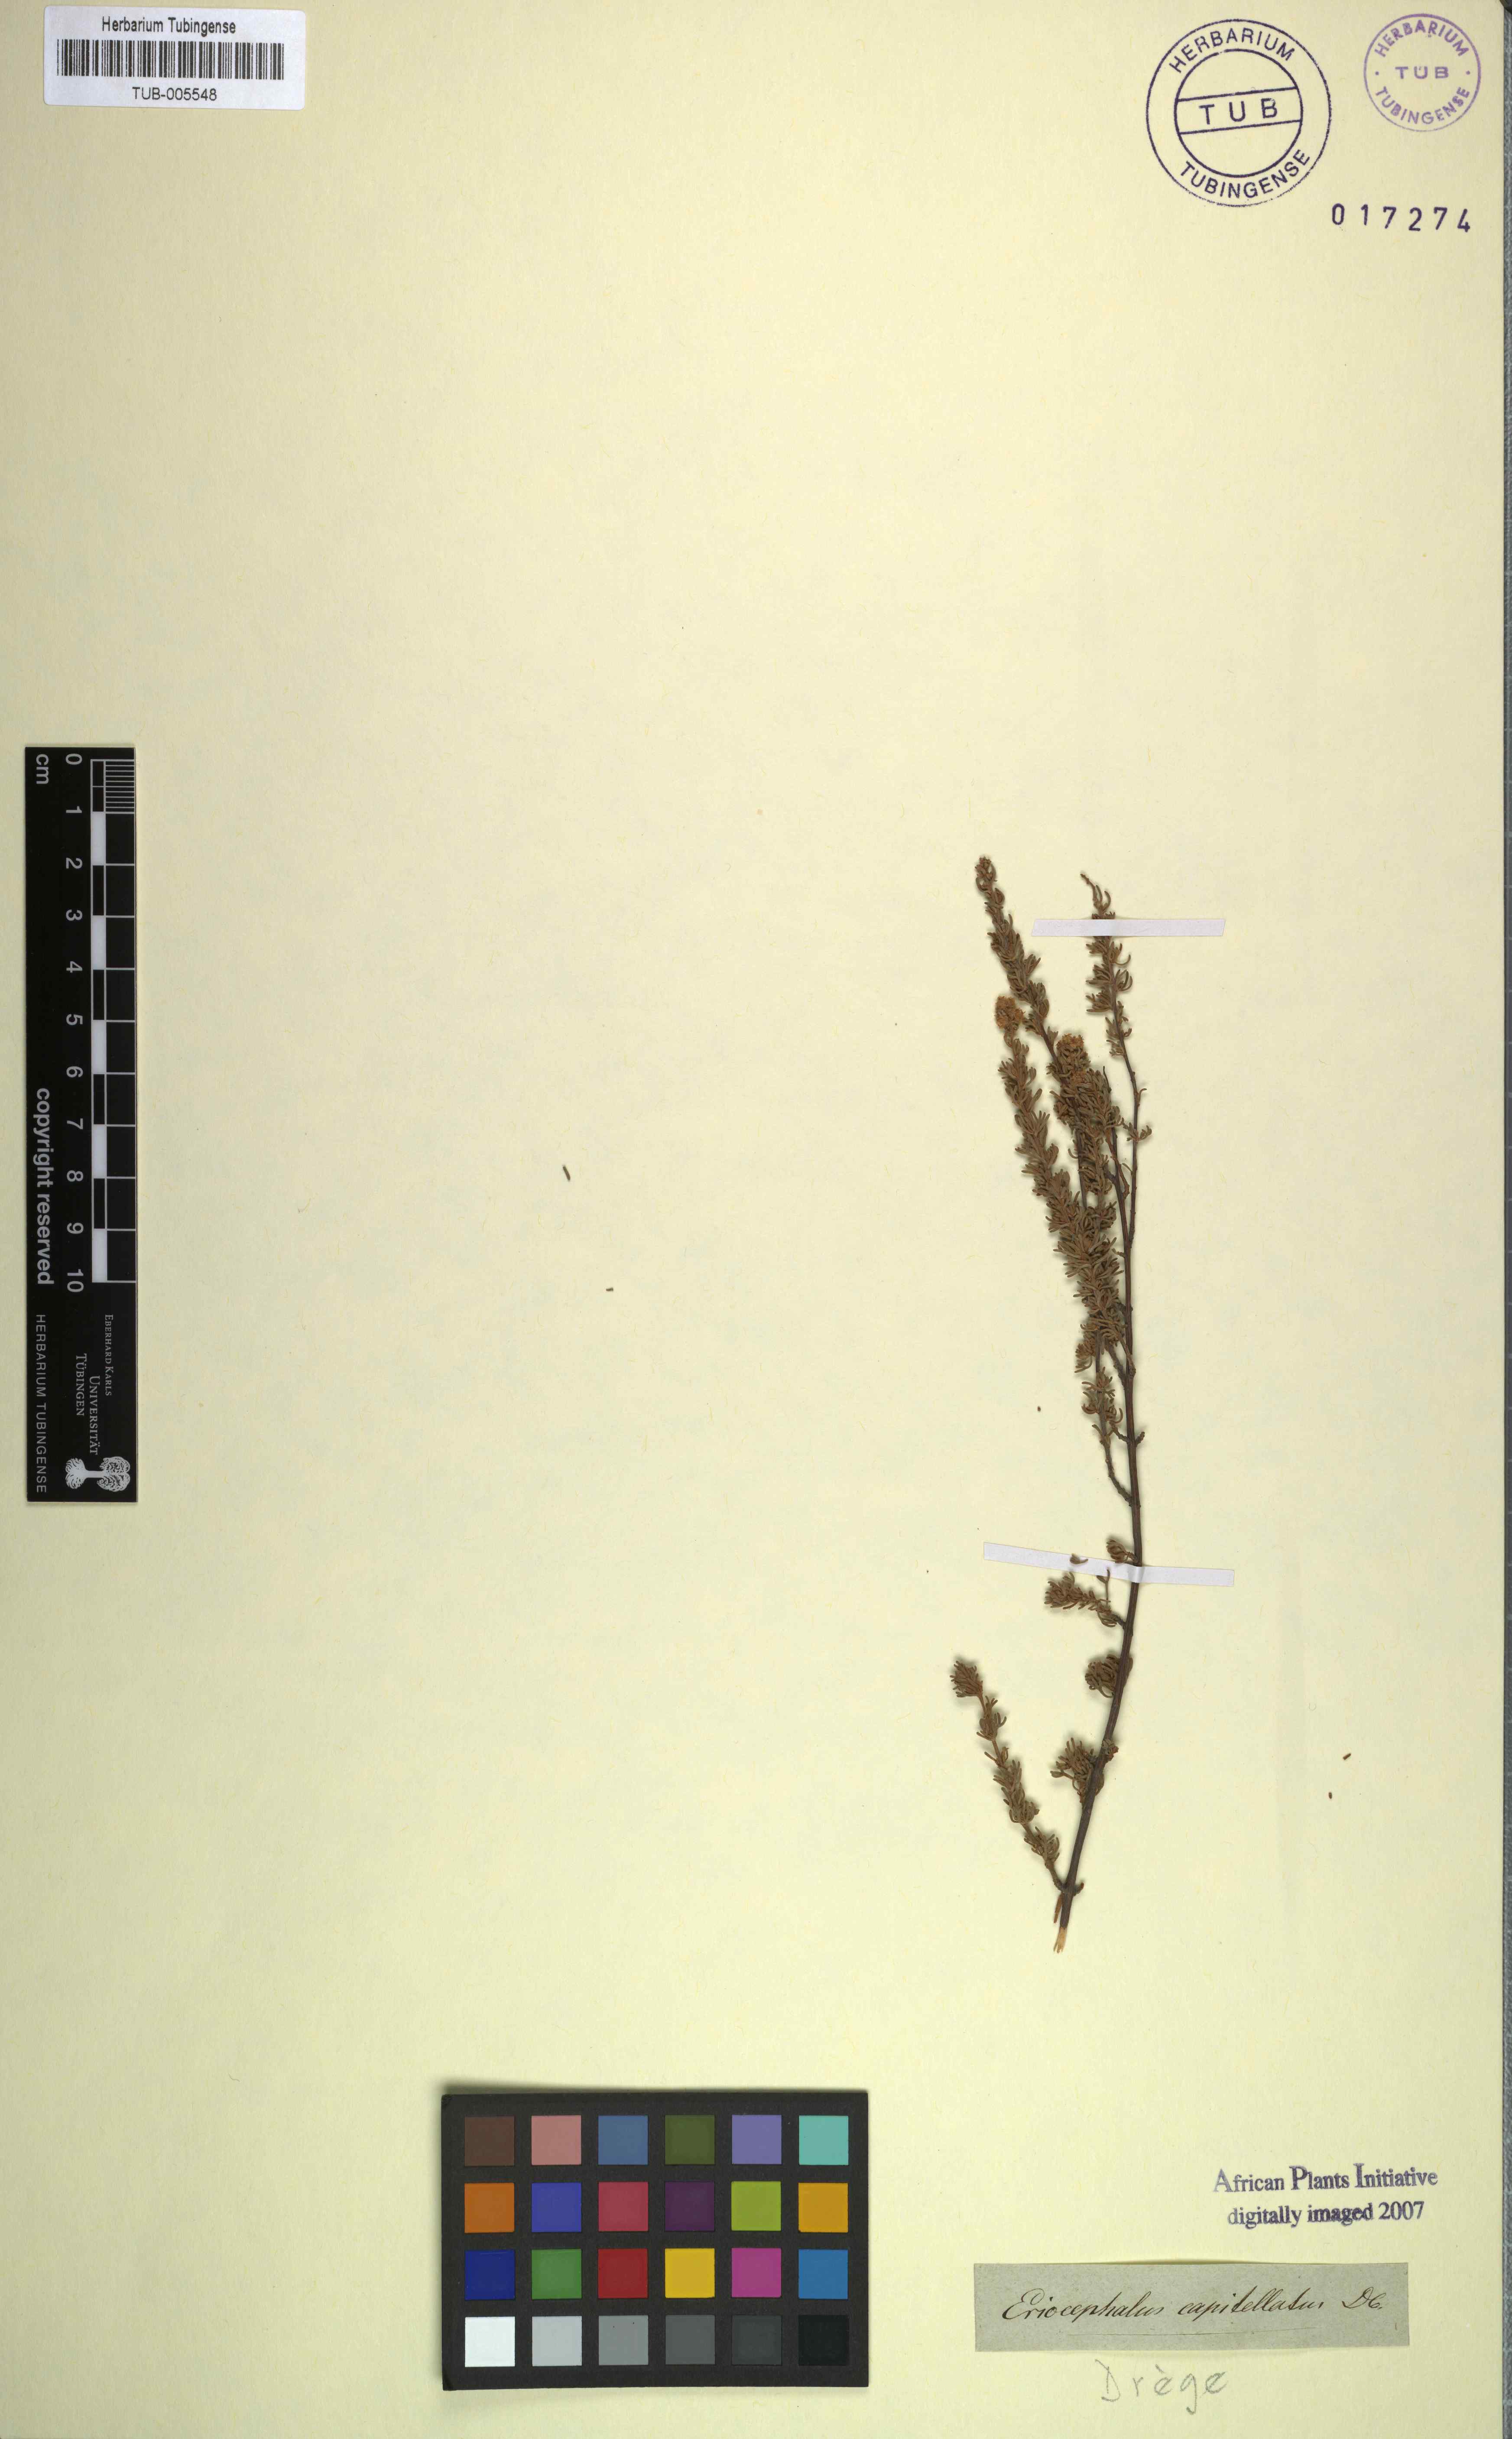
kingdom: Plantae
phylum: Tracheophyta
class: Magnoliopsida
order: Asterales
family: Asteraceae
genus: Eriocephalus
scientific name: Eriocephalus capitellatus
